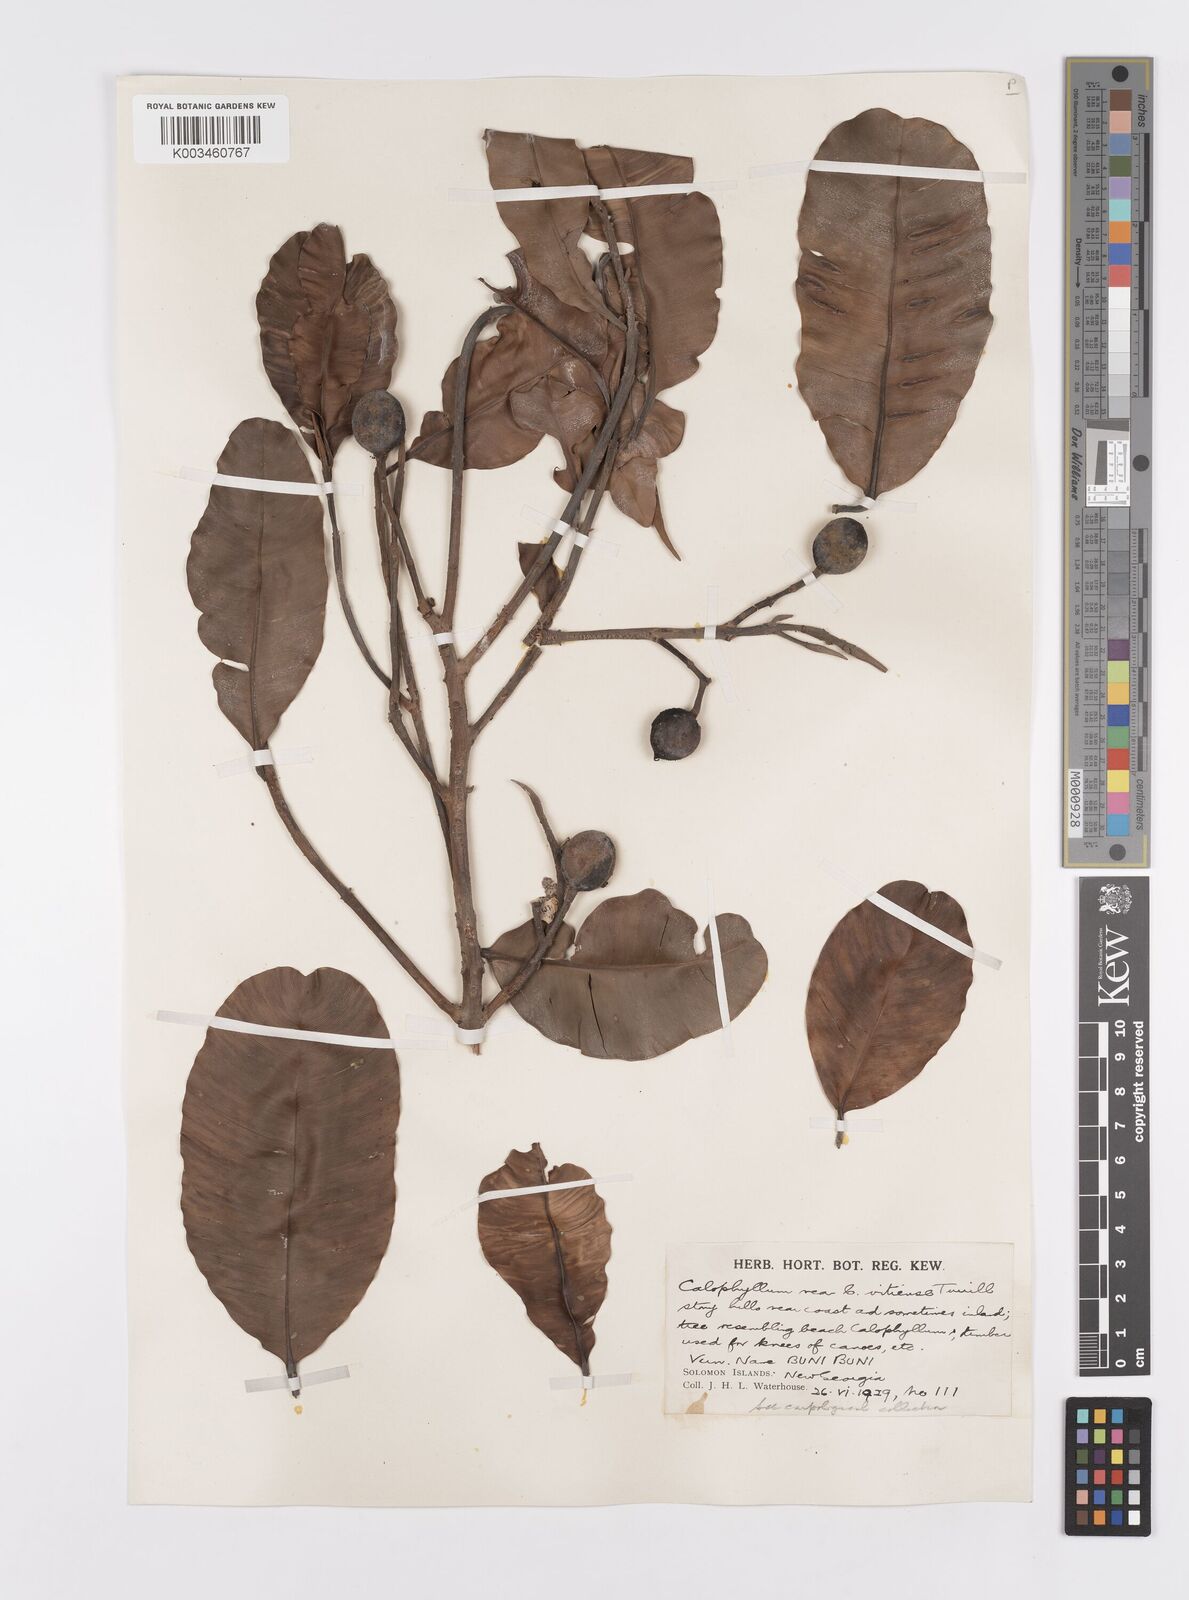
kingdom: Plantae
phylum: Tracheophyta
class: Magnoliopsida
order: Malpighiales
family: Calophyllaceae
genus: Calophyllum
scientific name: Calophyllum vitiense
